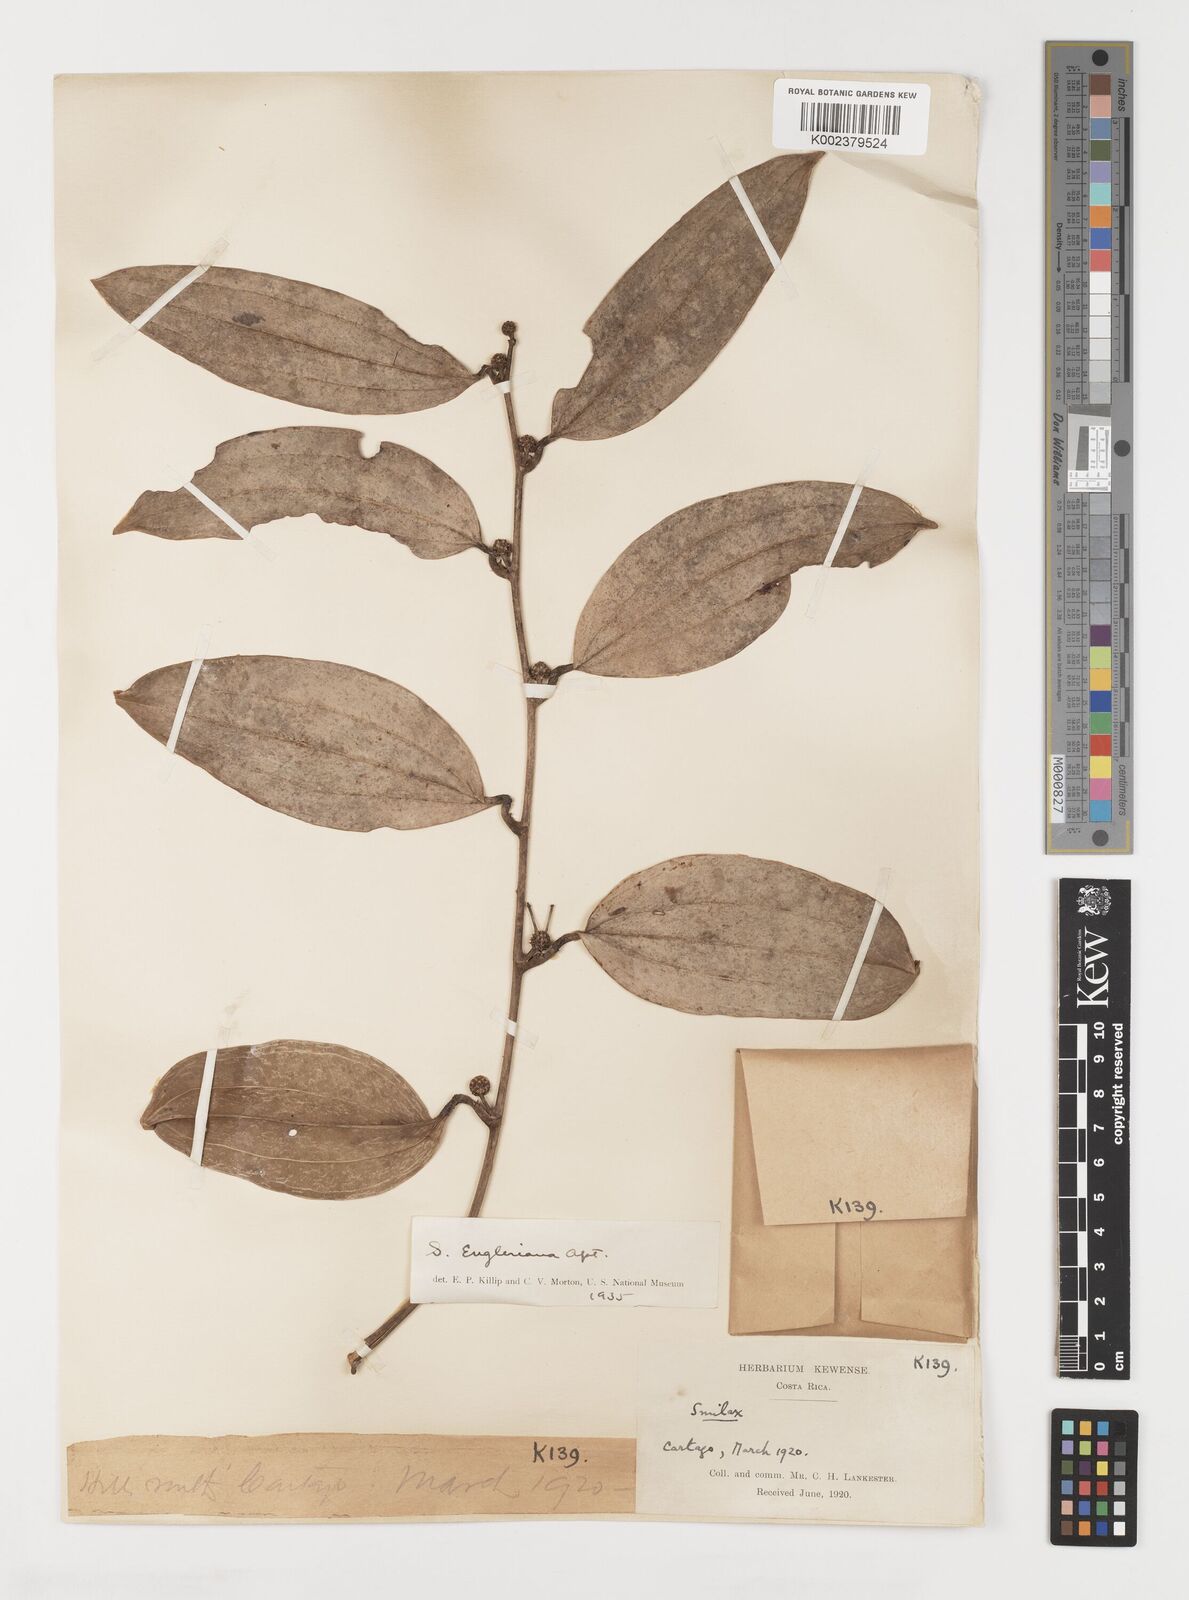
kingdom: Plantae
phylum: Tracheophyta
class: Liliopsida
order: Liliales
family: Smilacaceae
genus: Smilax
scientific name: Smilax domingensis
